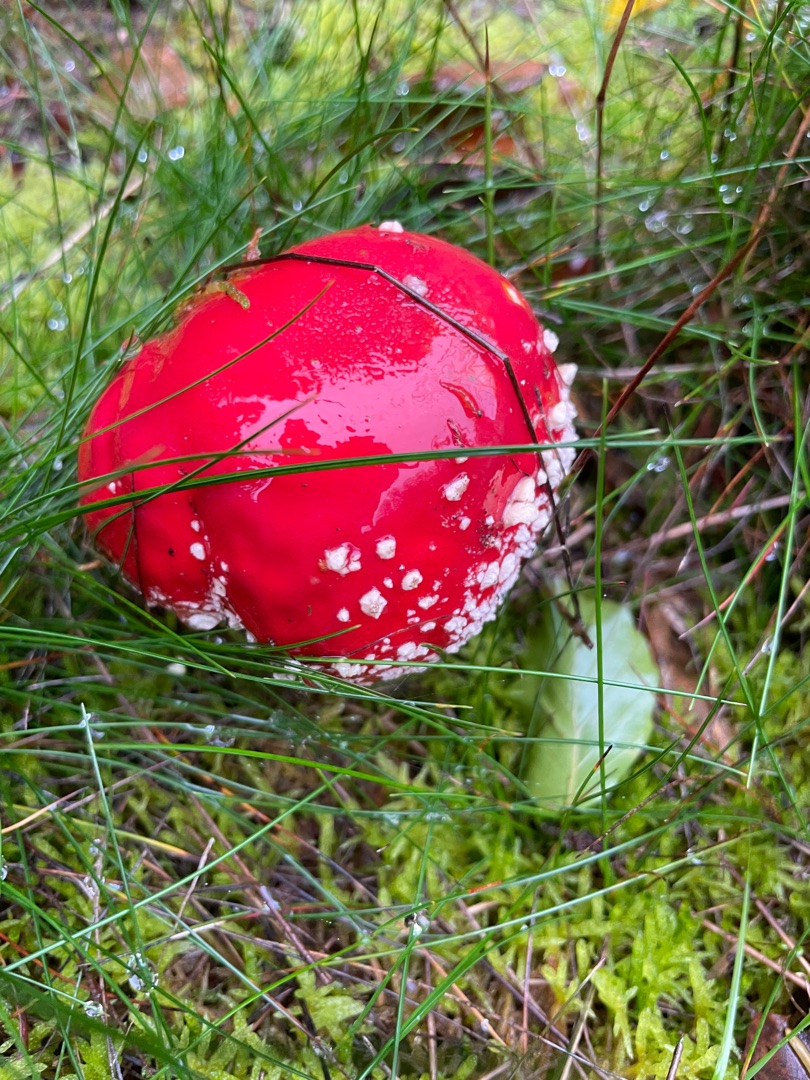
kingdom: Fungi
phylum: Basidiomycota
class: Agaricomycetes
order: Agaricales
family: Amanitaceae
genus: Amanita
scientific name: Amanita muscaria
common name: Rød fluesvamp
